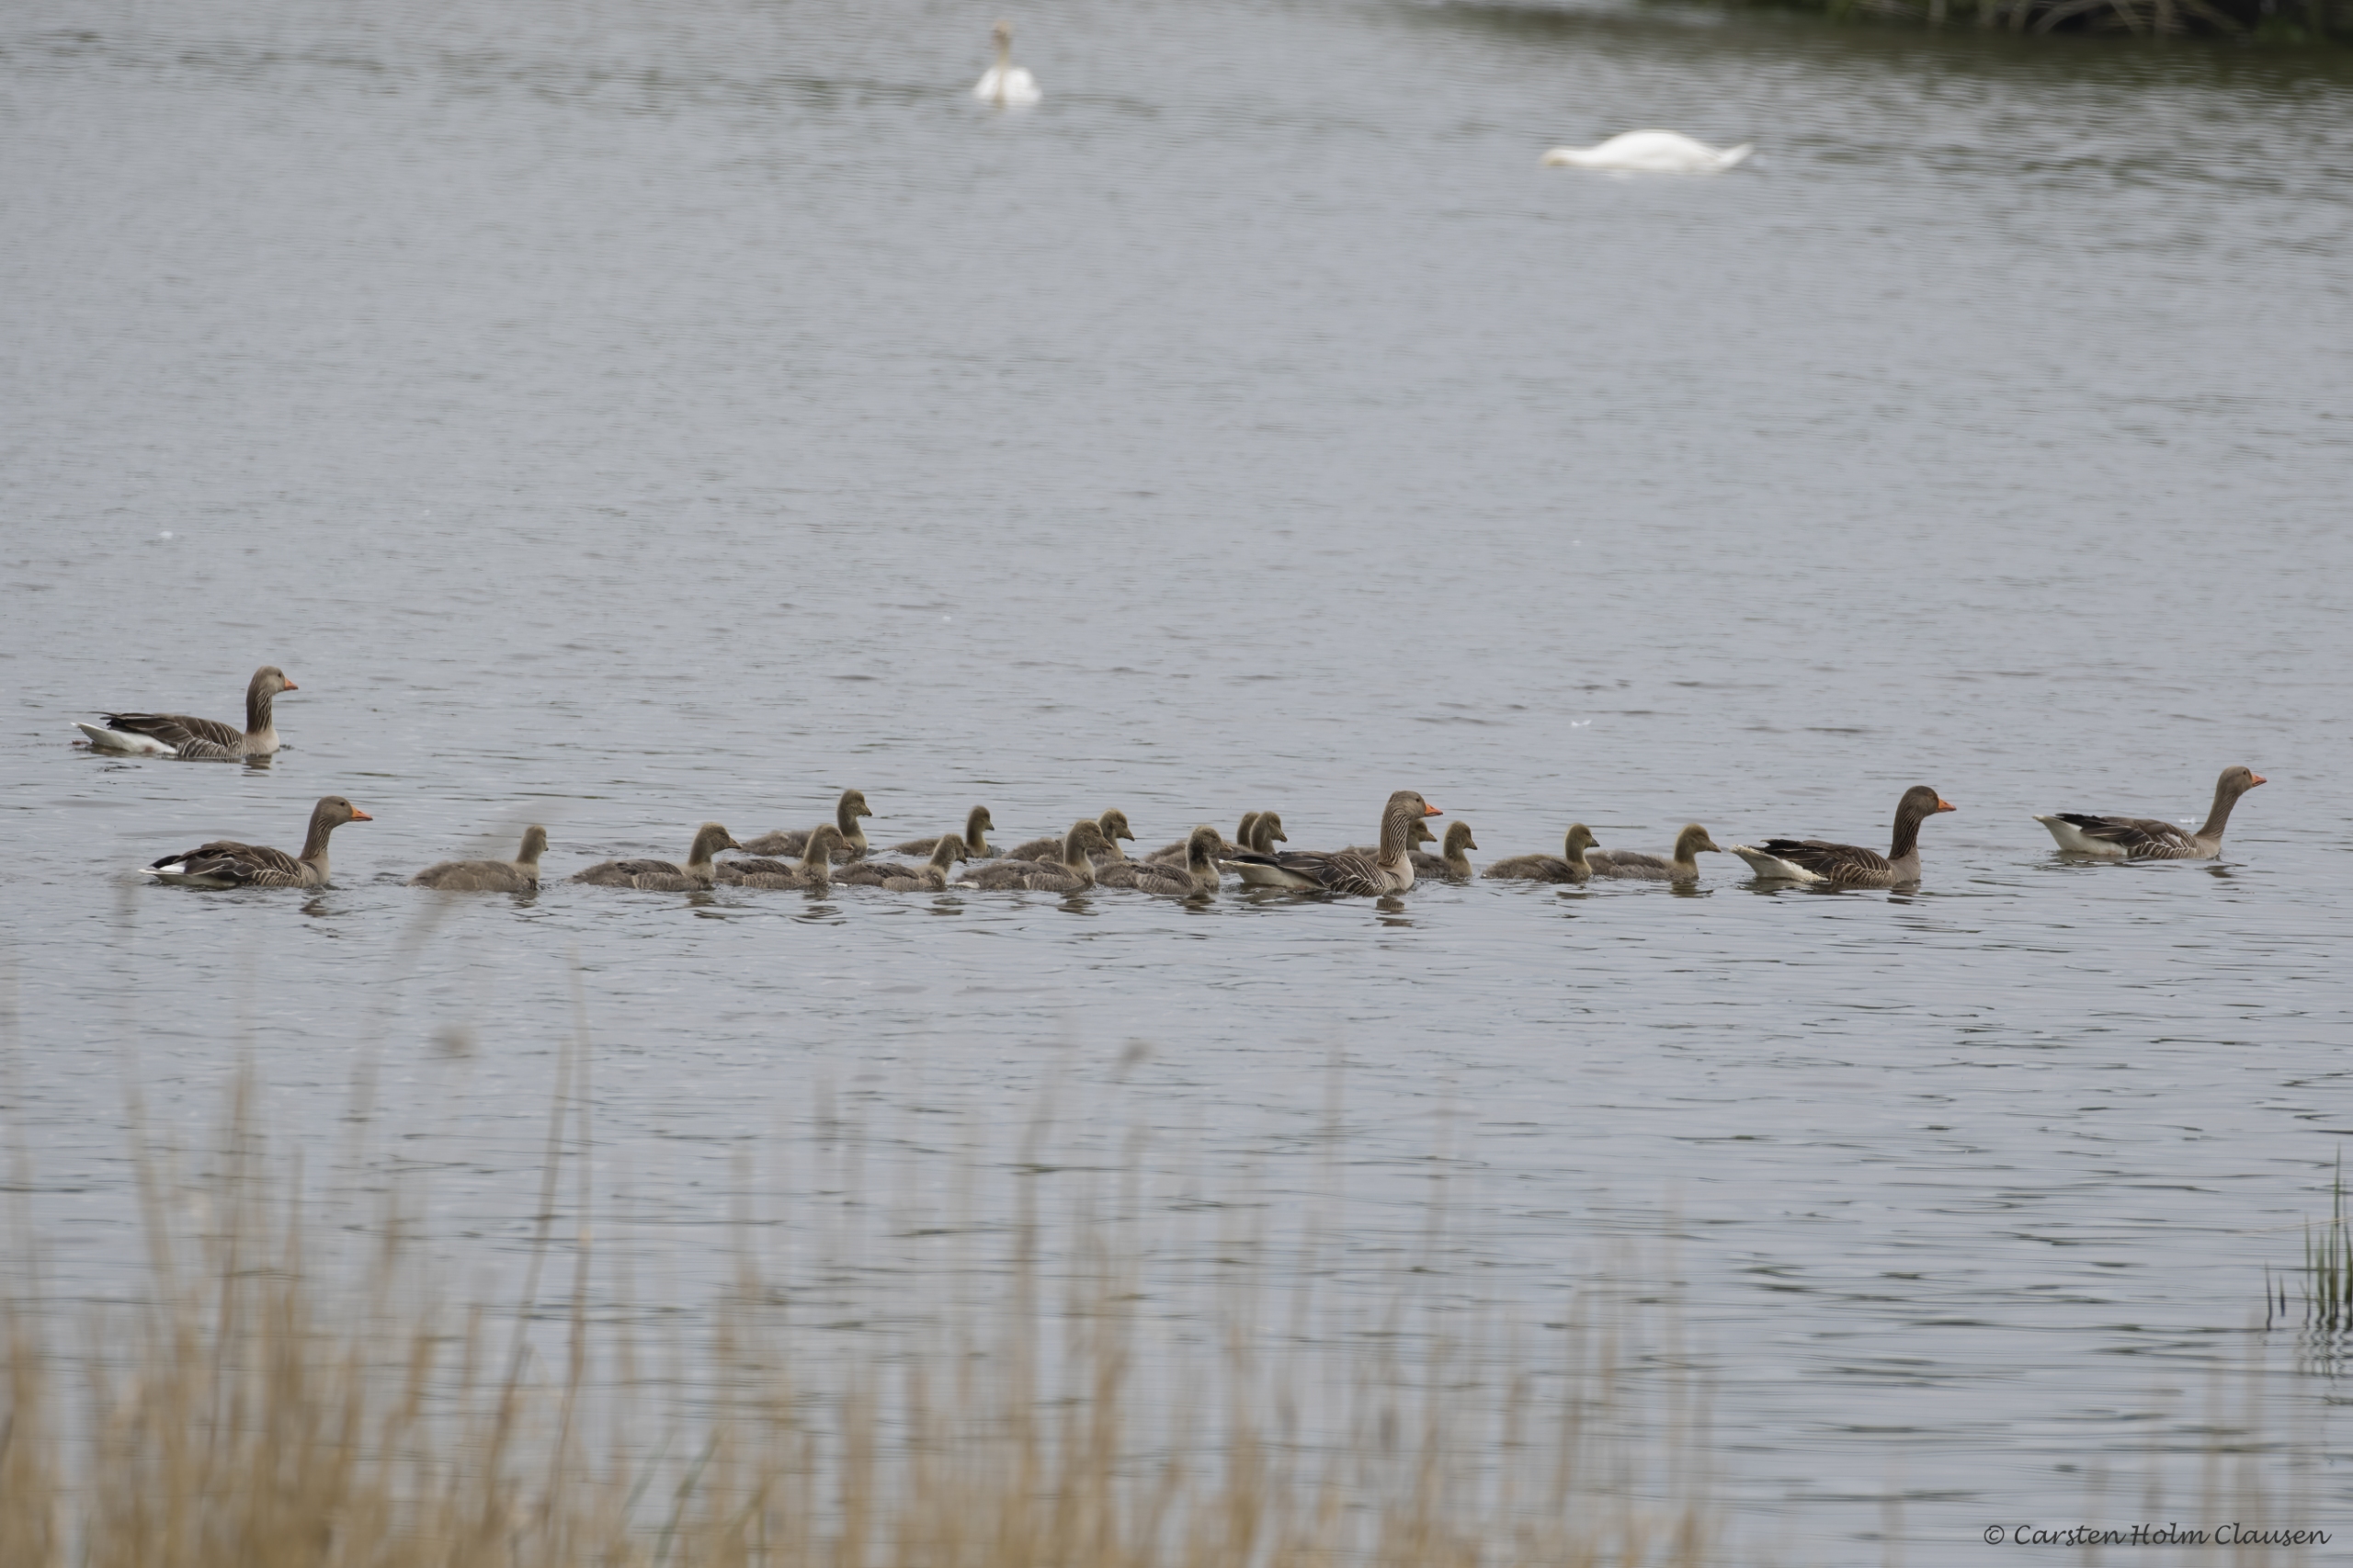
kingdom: Animalia
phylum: Chordata
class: Aves
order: Anseriformes
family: Anatidae
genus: Anser
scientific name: Anser anser
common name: Grågås
